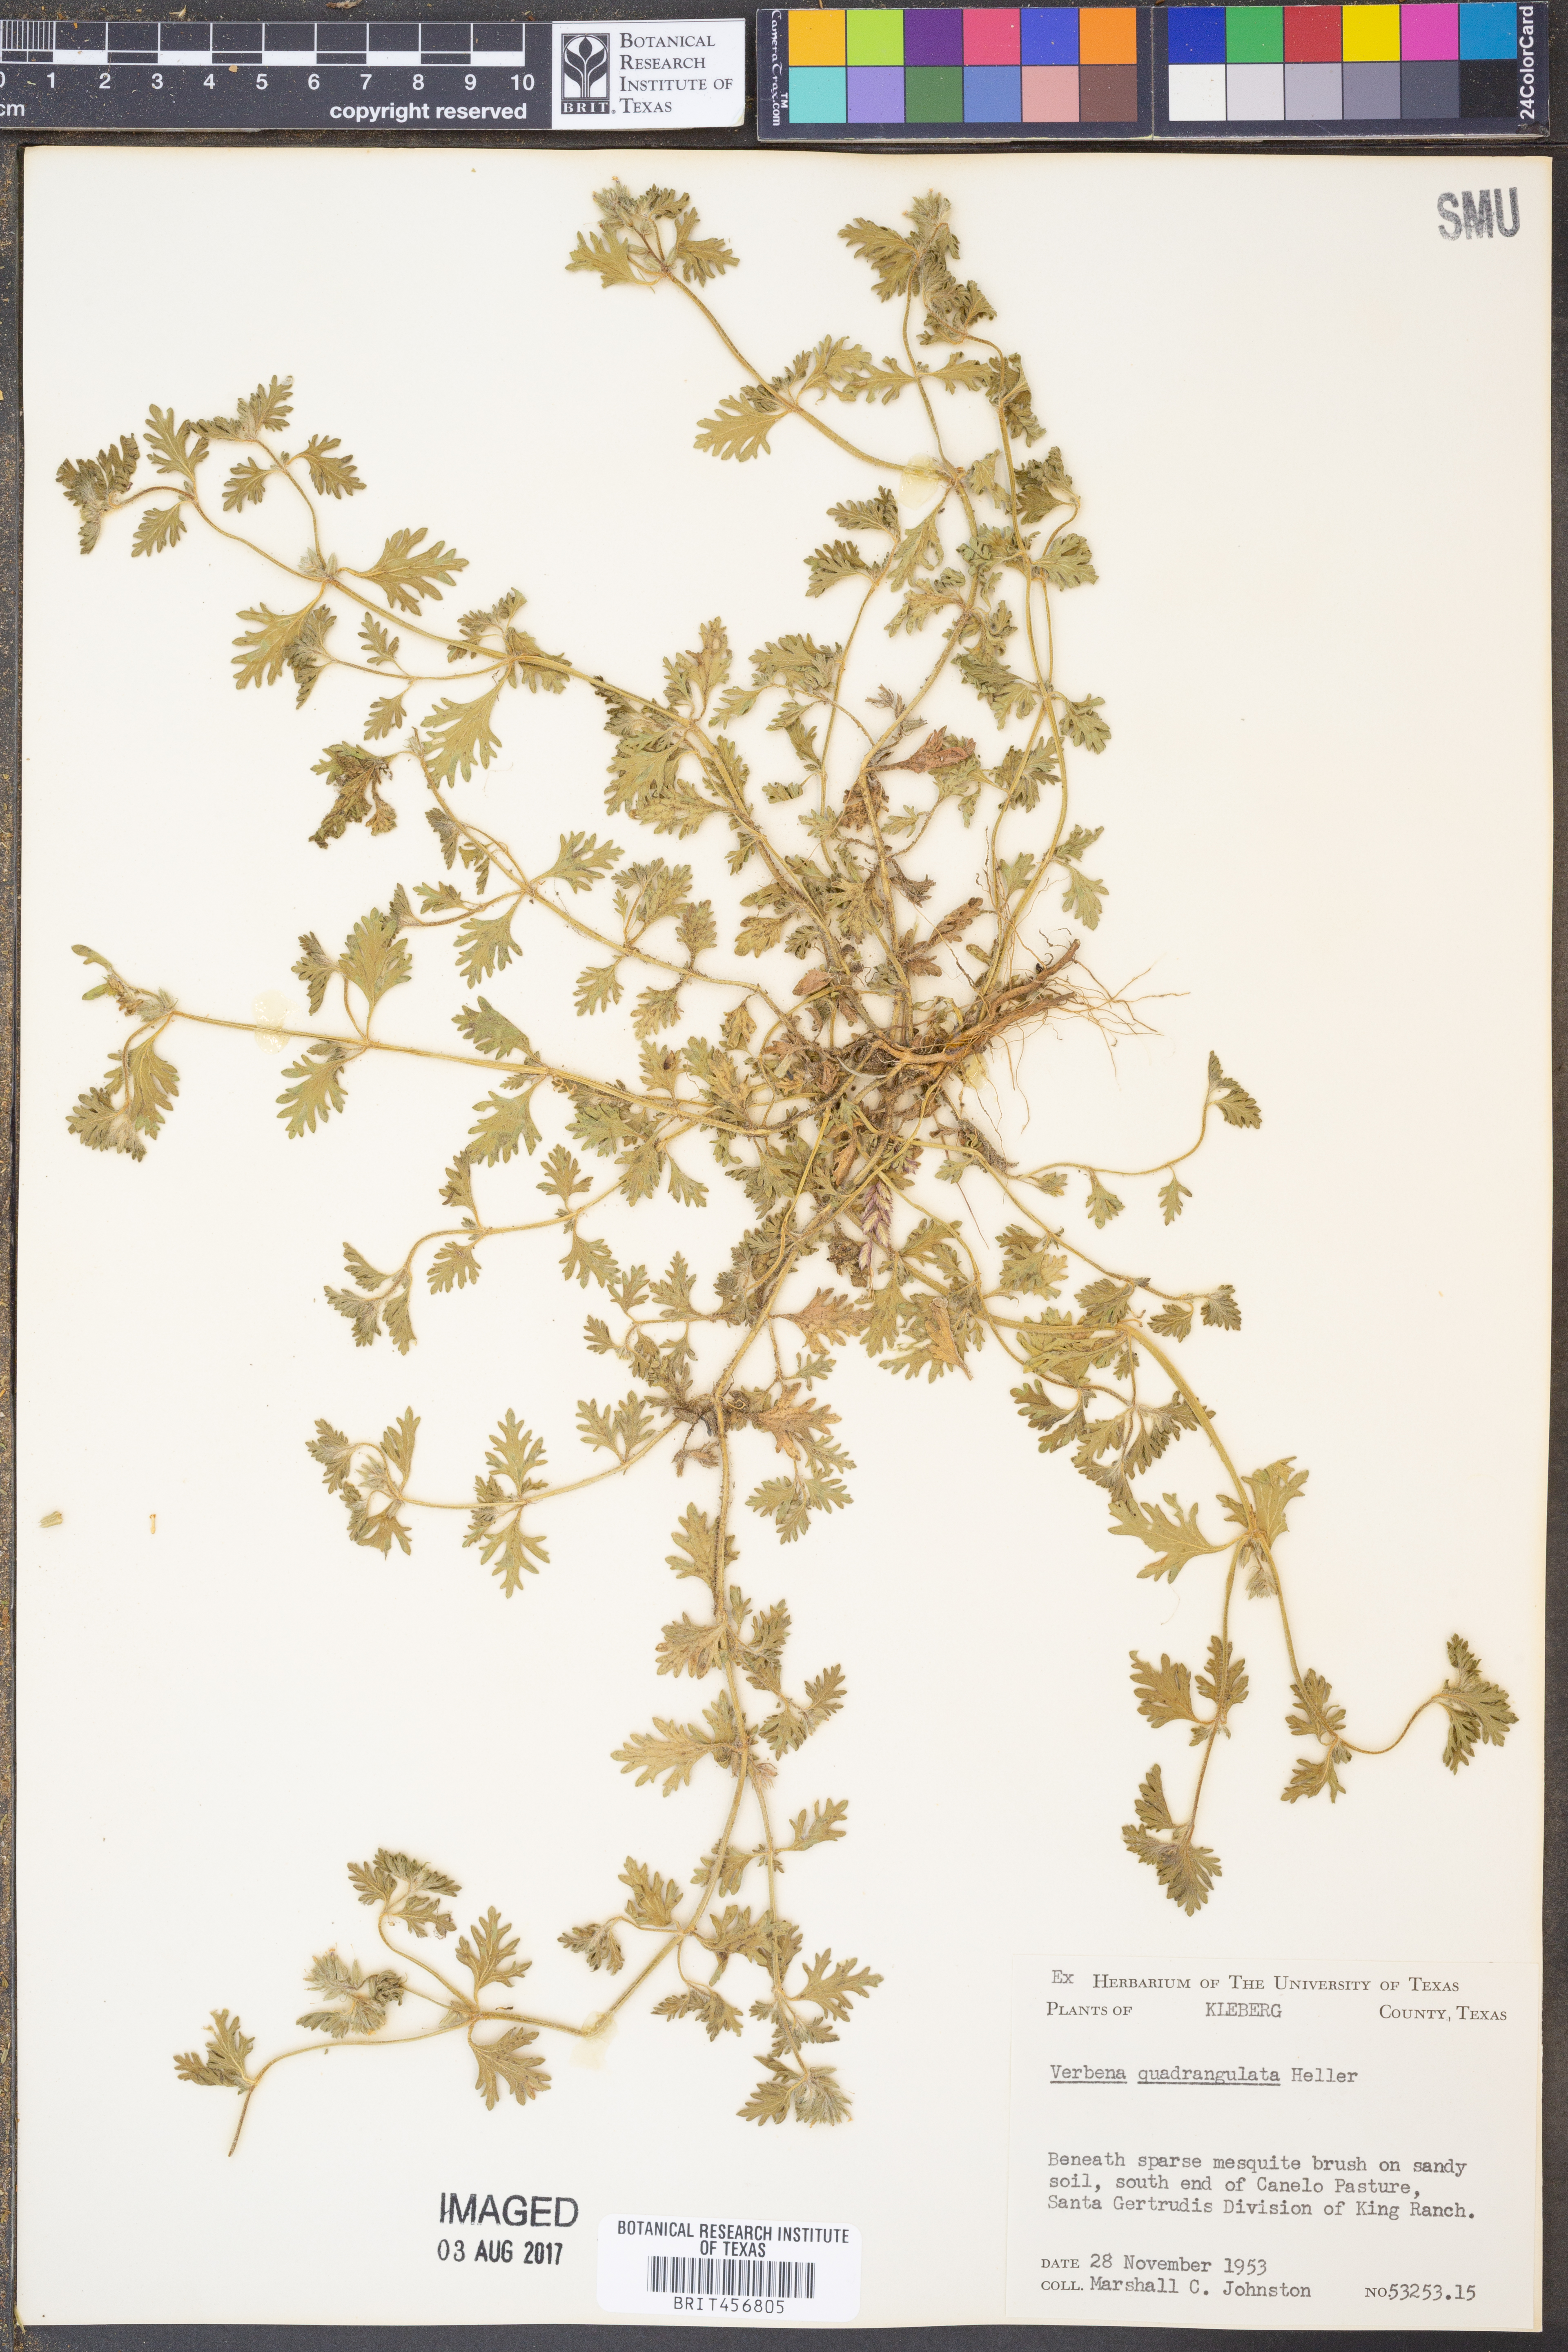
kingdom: Plantae
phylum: Tracheophyta
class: Magnoliopsida
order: Lamiales
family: Verbenaceae
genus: Verbena
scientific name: Verbena quadrangulata
